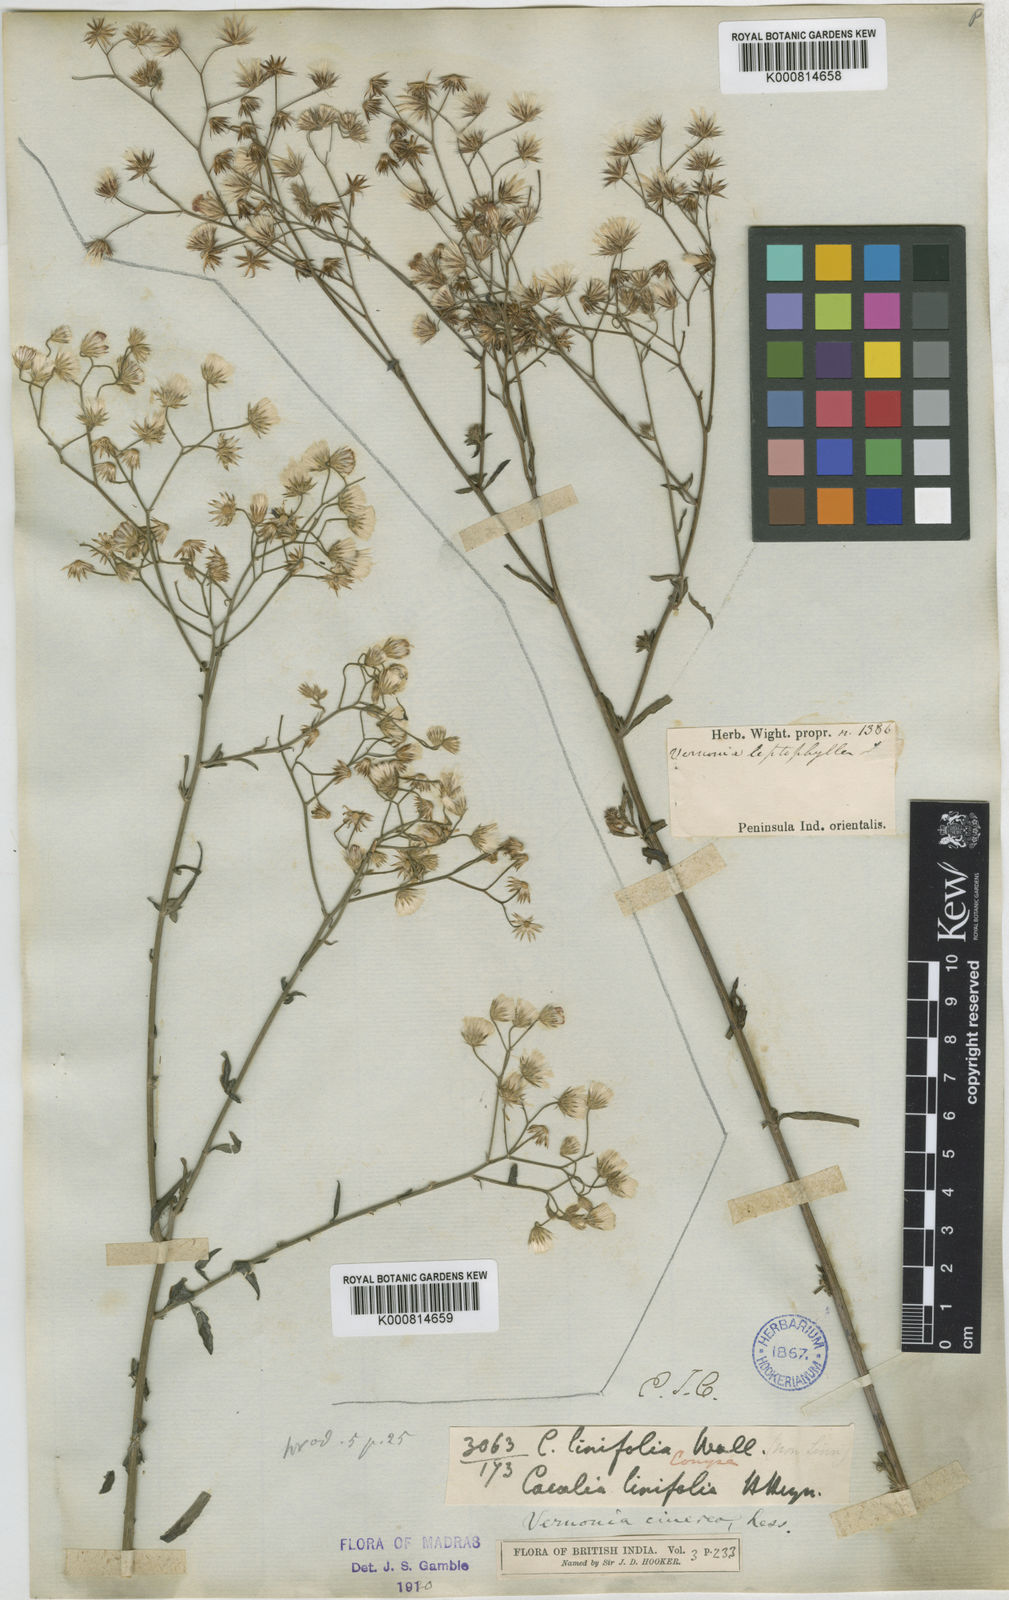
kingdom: Plantae
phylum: Tracheophyta
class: Magnoliopsida
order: Asterales
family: Asteraceae
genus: Cyanthillium
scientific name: Cyanthillium cinereum
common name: Little ironweed
